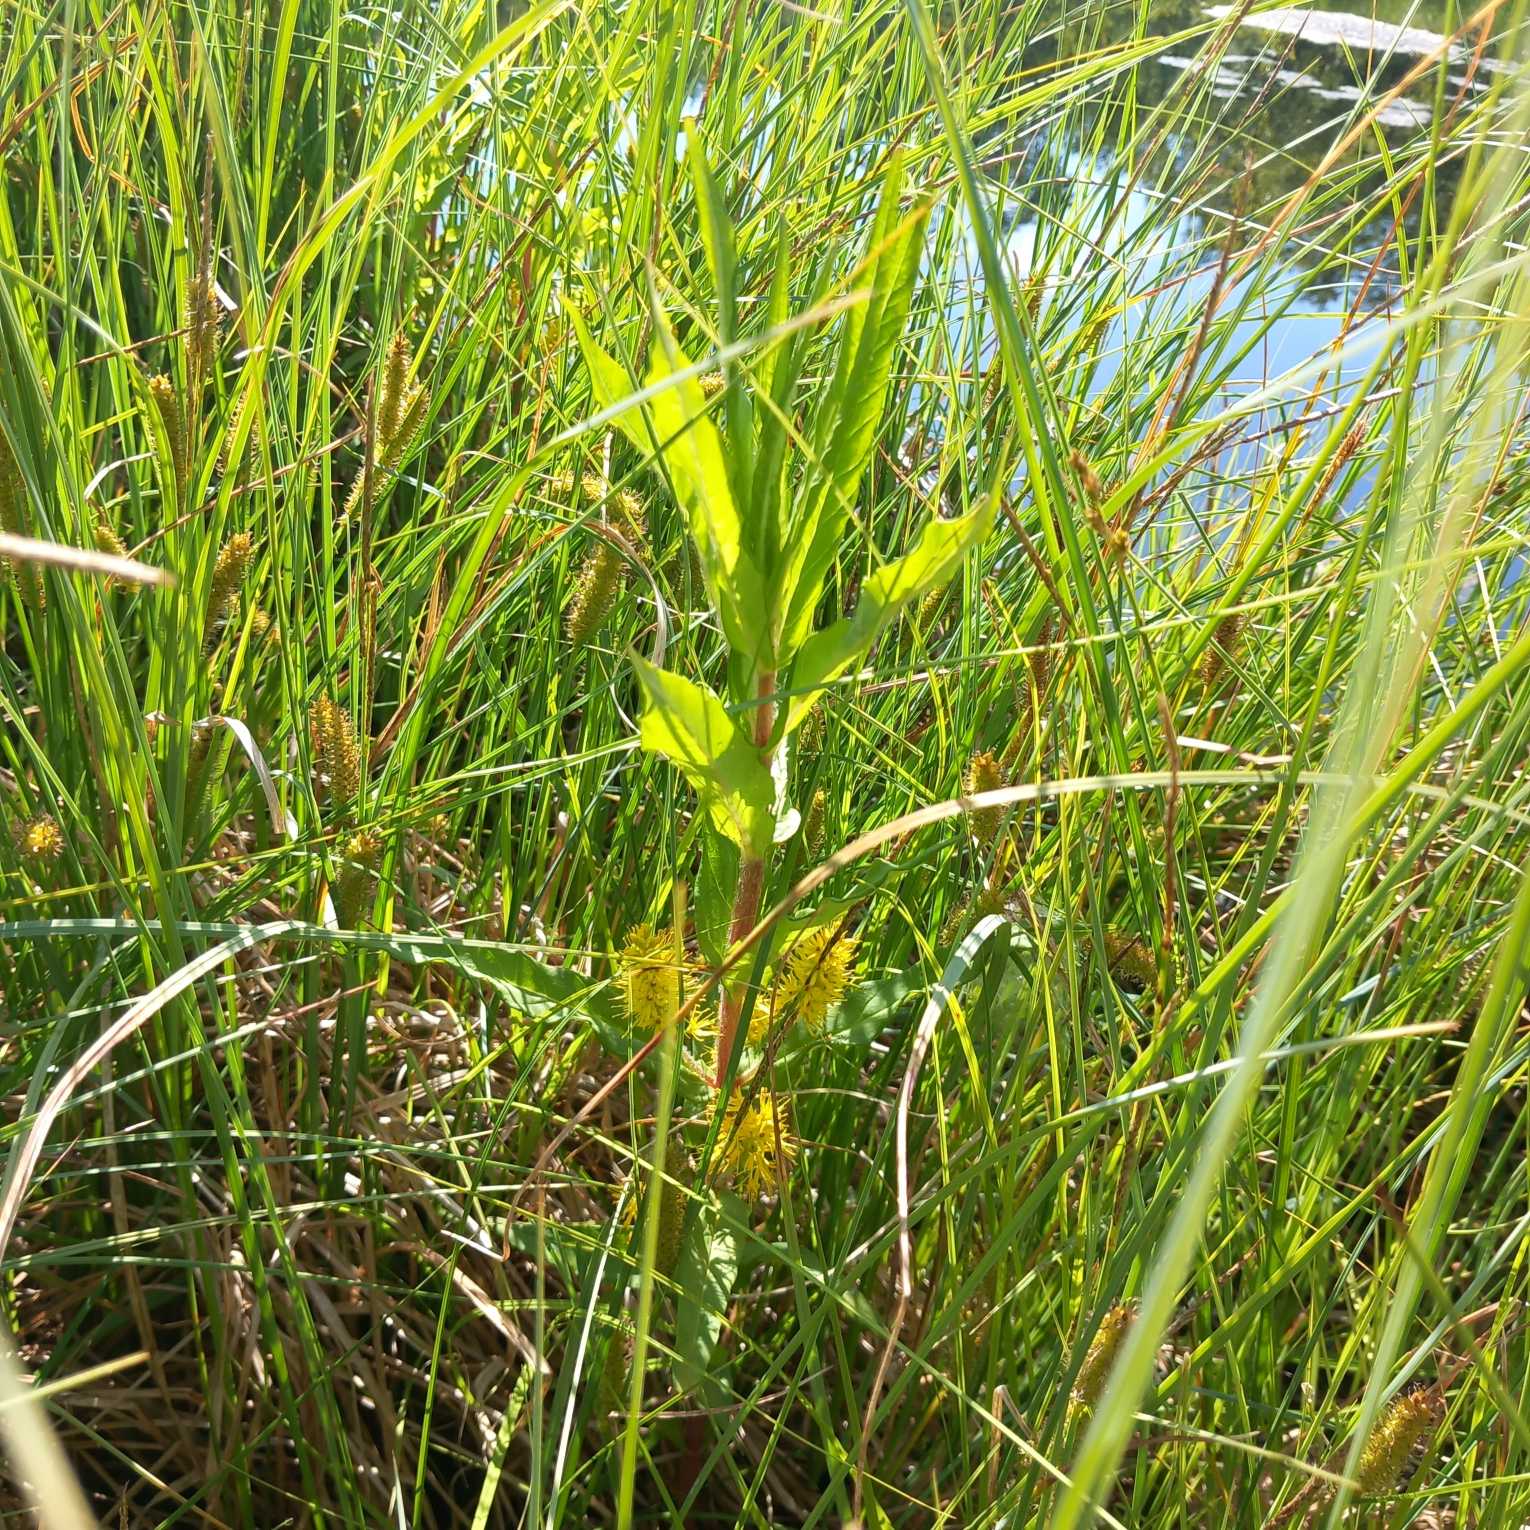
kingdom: Plantae
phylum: Tracheophyta
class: Magnoliopsida
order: Ericales
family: Primulaceae
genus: Lysimachia
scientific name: Lysimachia thyrsiflora
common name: Dusk-fredløs
